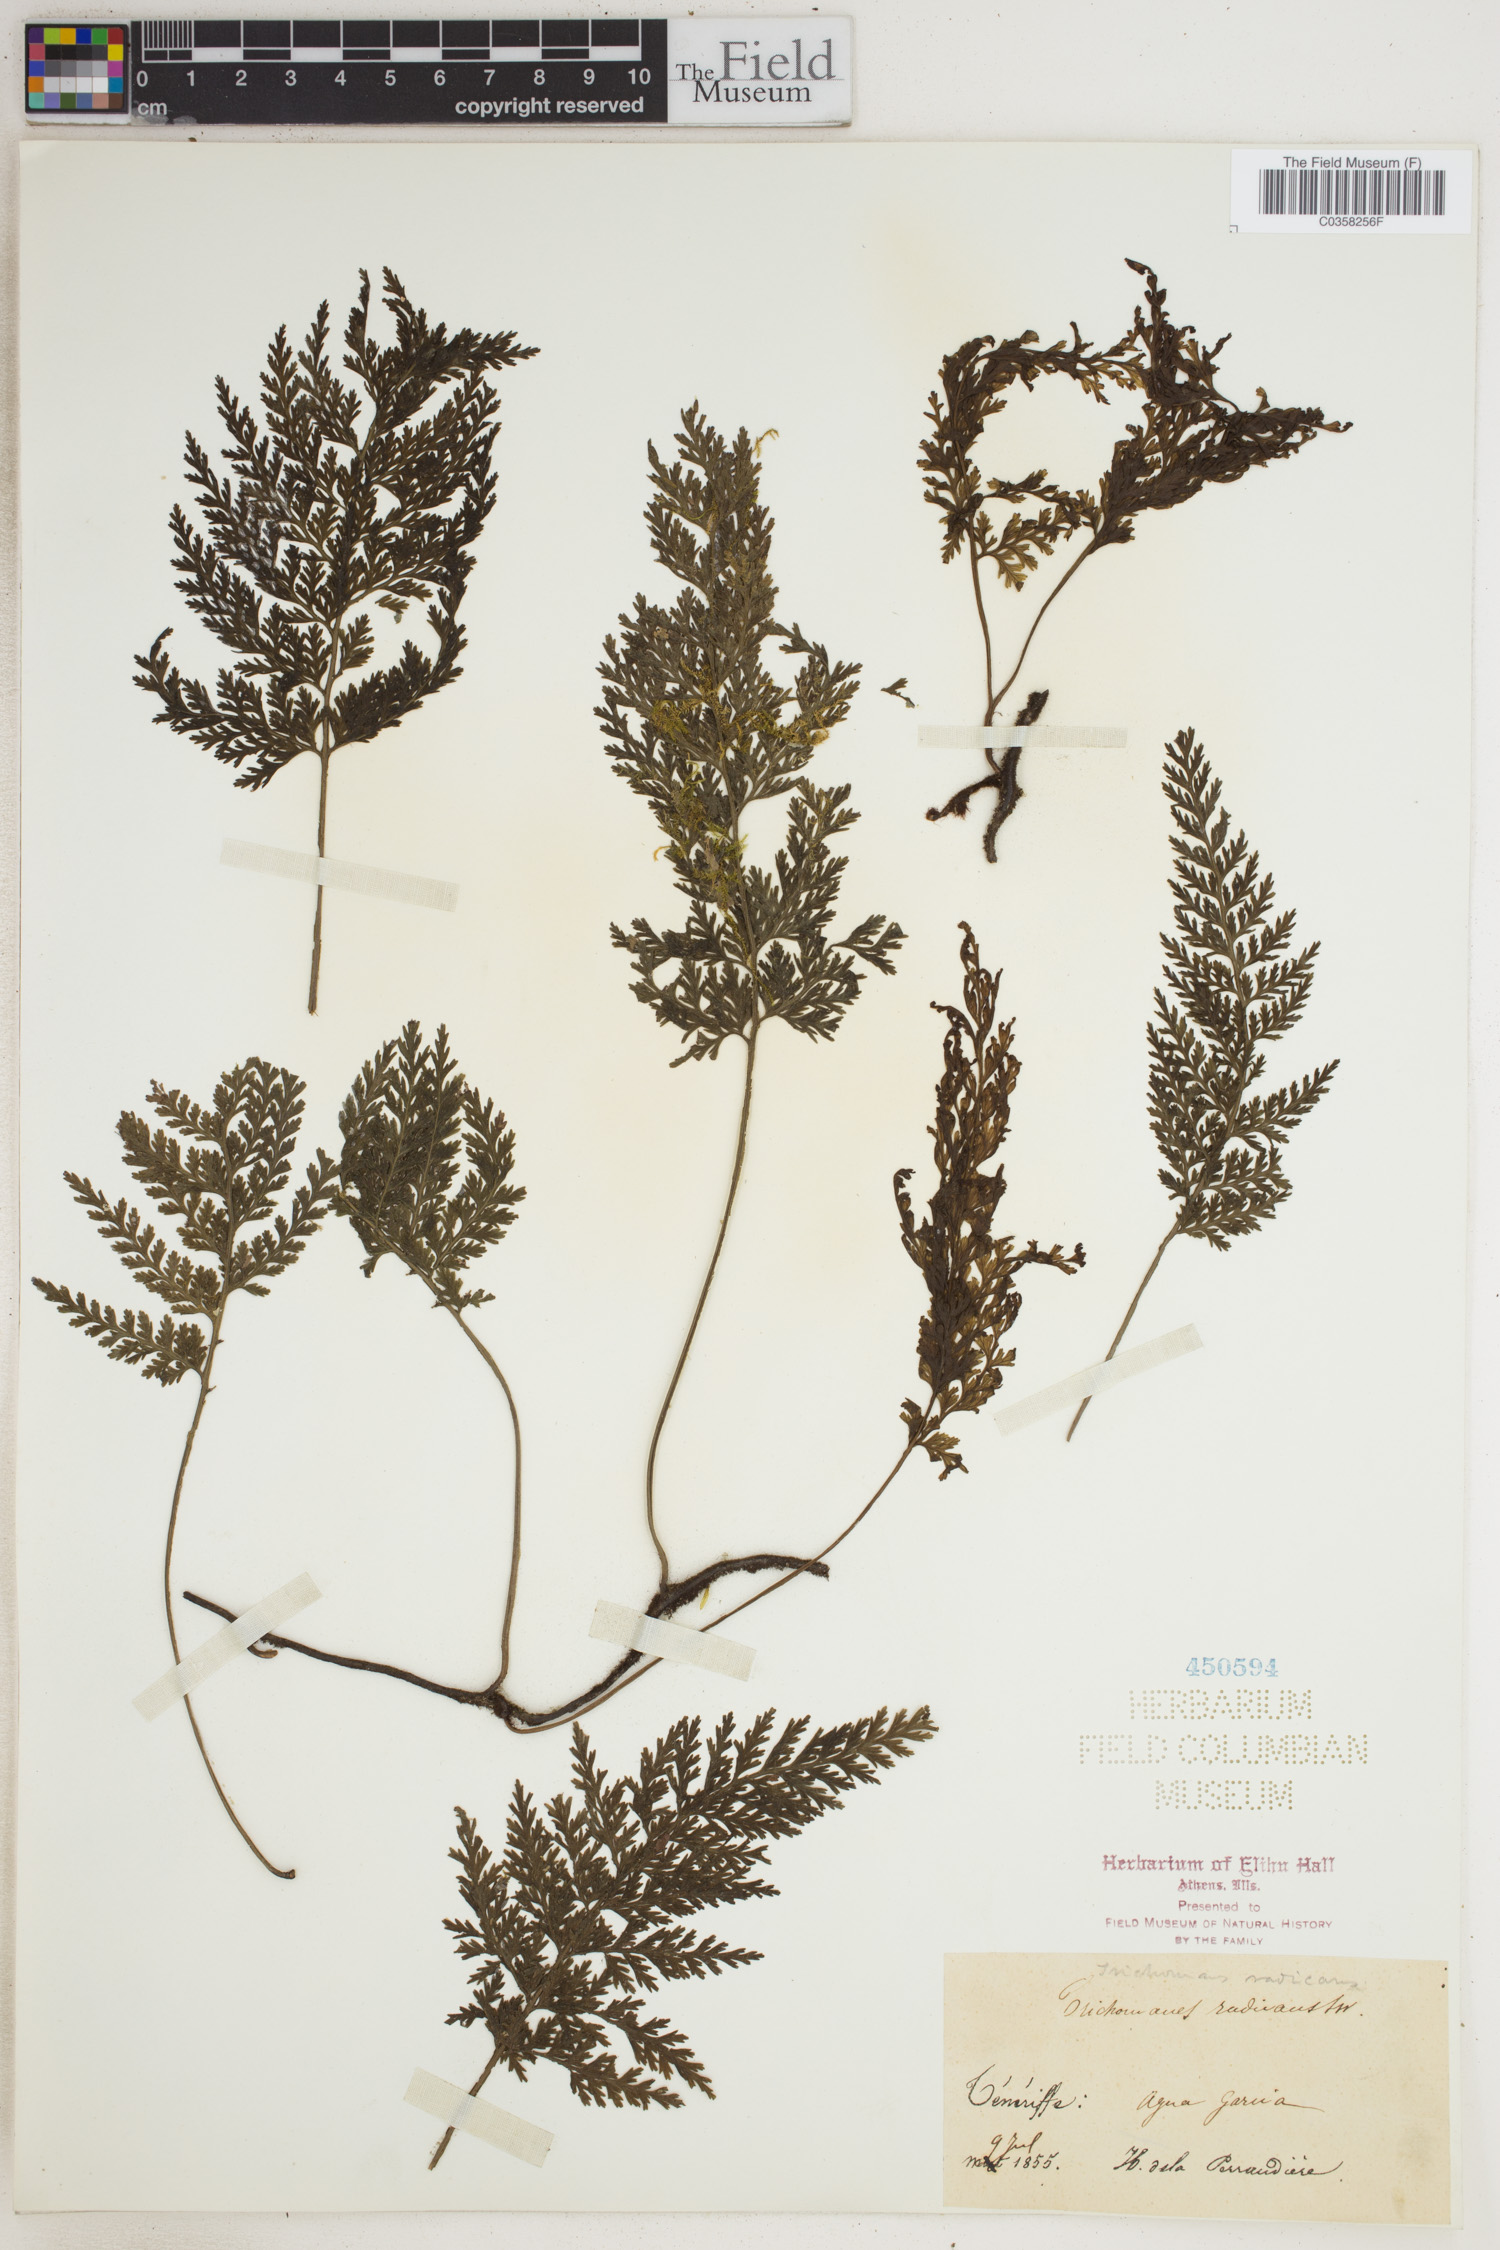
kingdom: Plantae
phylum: Tracheophyta
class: Polypodiopsida
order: Hymenophyllales
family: Hymenophyllaceae
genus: Vandenboschia
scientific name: Vandenboschia radicans
